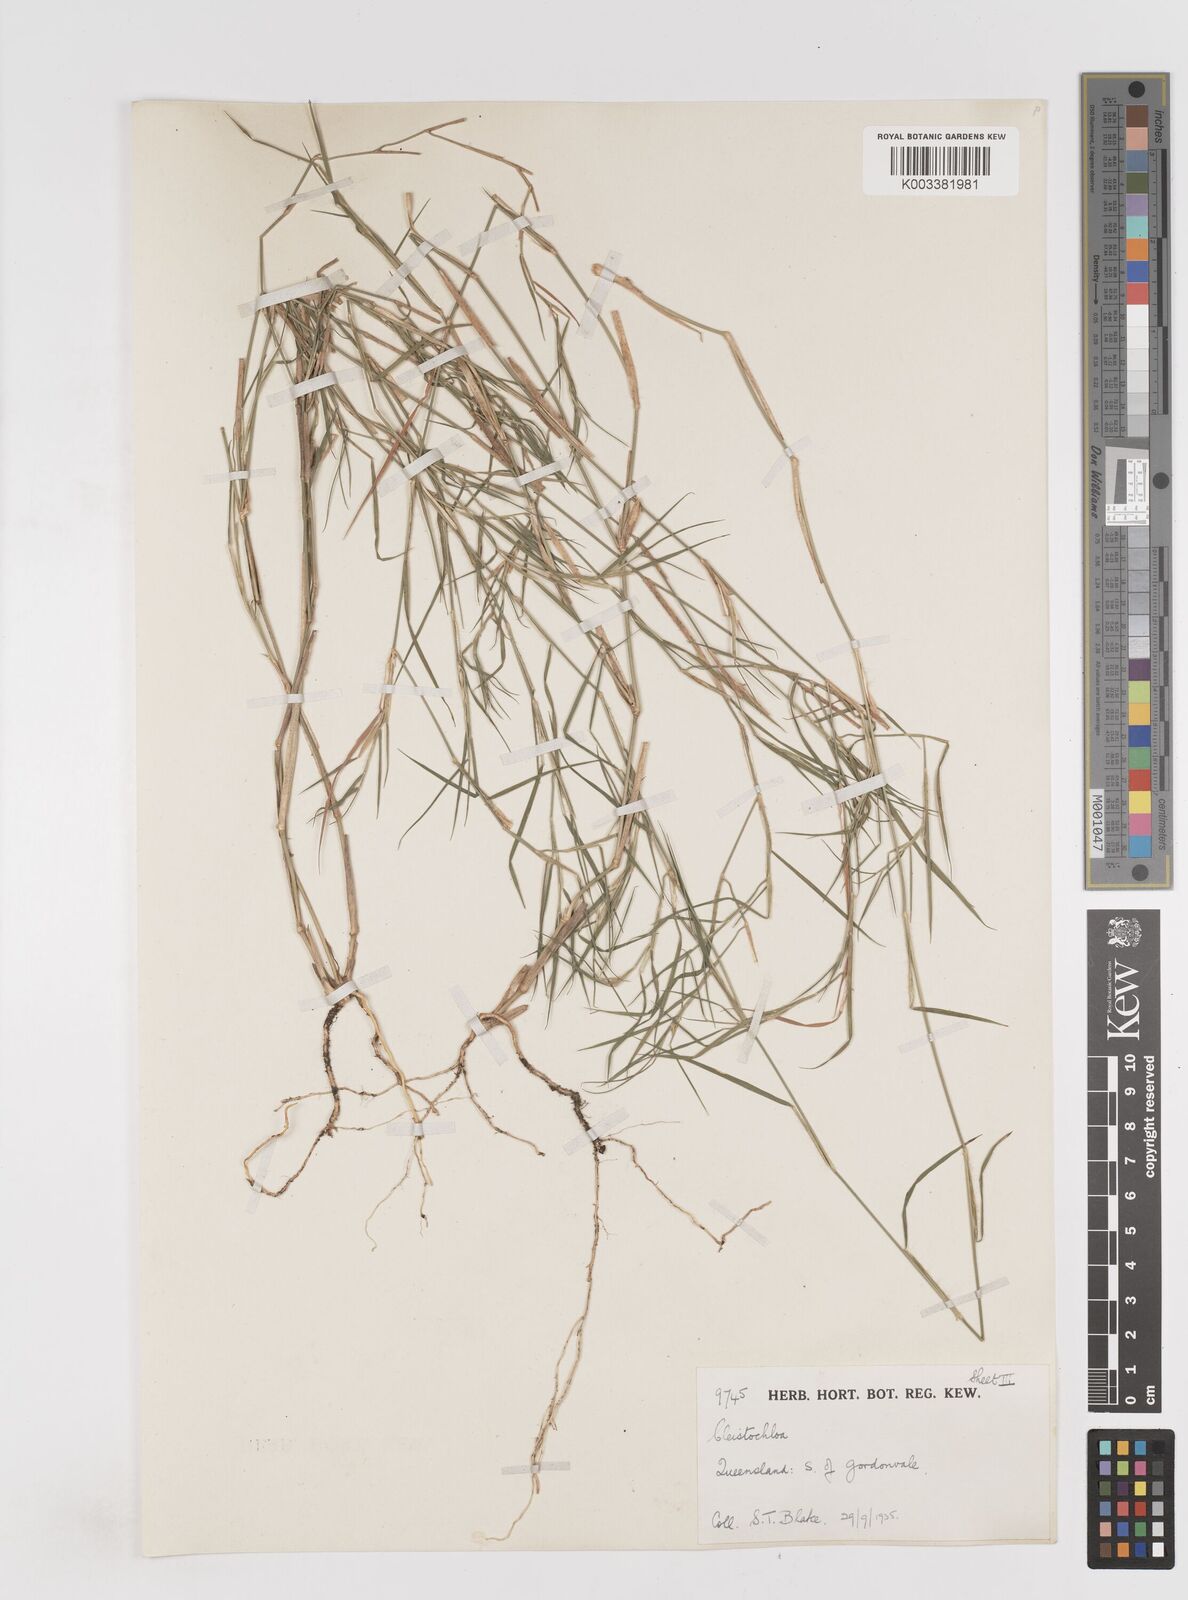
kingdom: Plantae
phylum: Tracheophyta
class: Liliopsida
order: Poales
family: Poaceae
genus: Cleistochloa
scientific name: Cleistochloa
